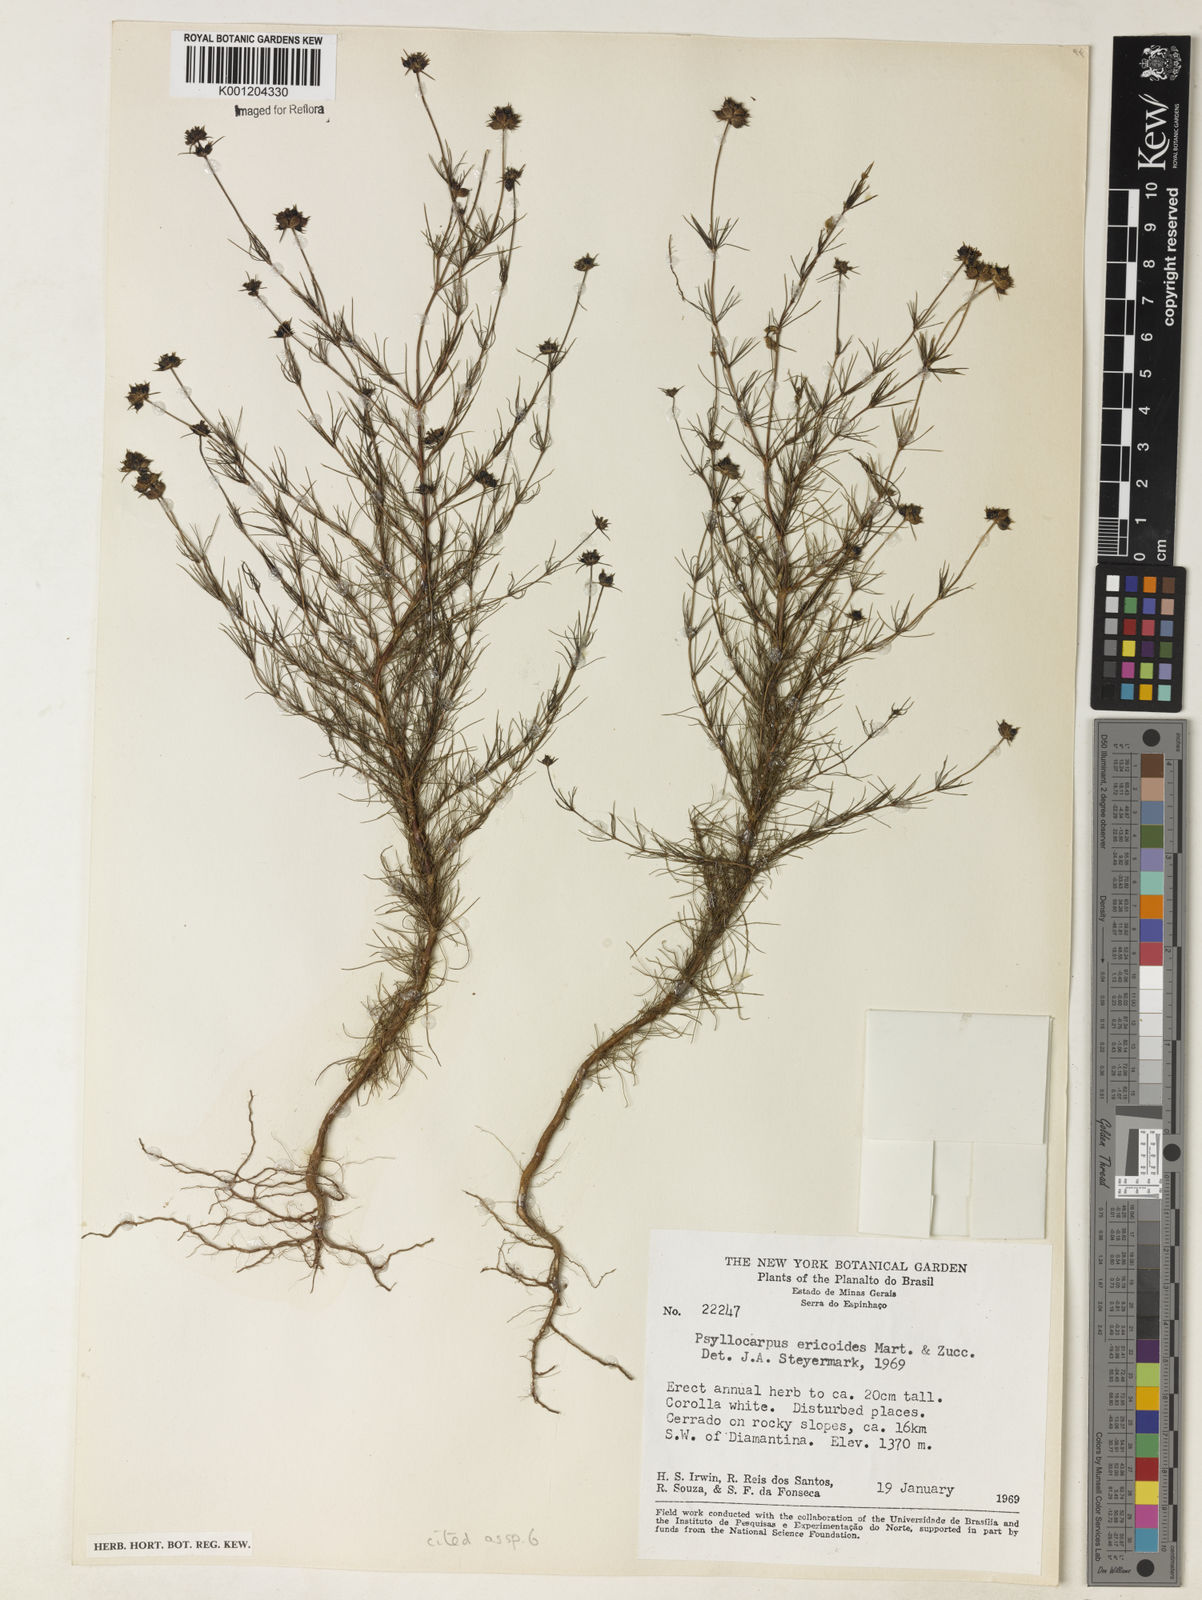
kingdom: Plantae
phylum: Tracheophyta
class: Magnoliopsida
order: Gentianales
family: Rubiaceae
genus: Psyllocarpus
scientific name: Psyllocarpus laricoides
